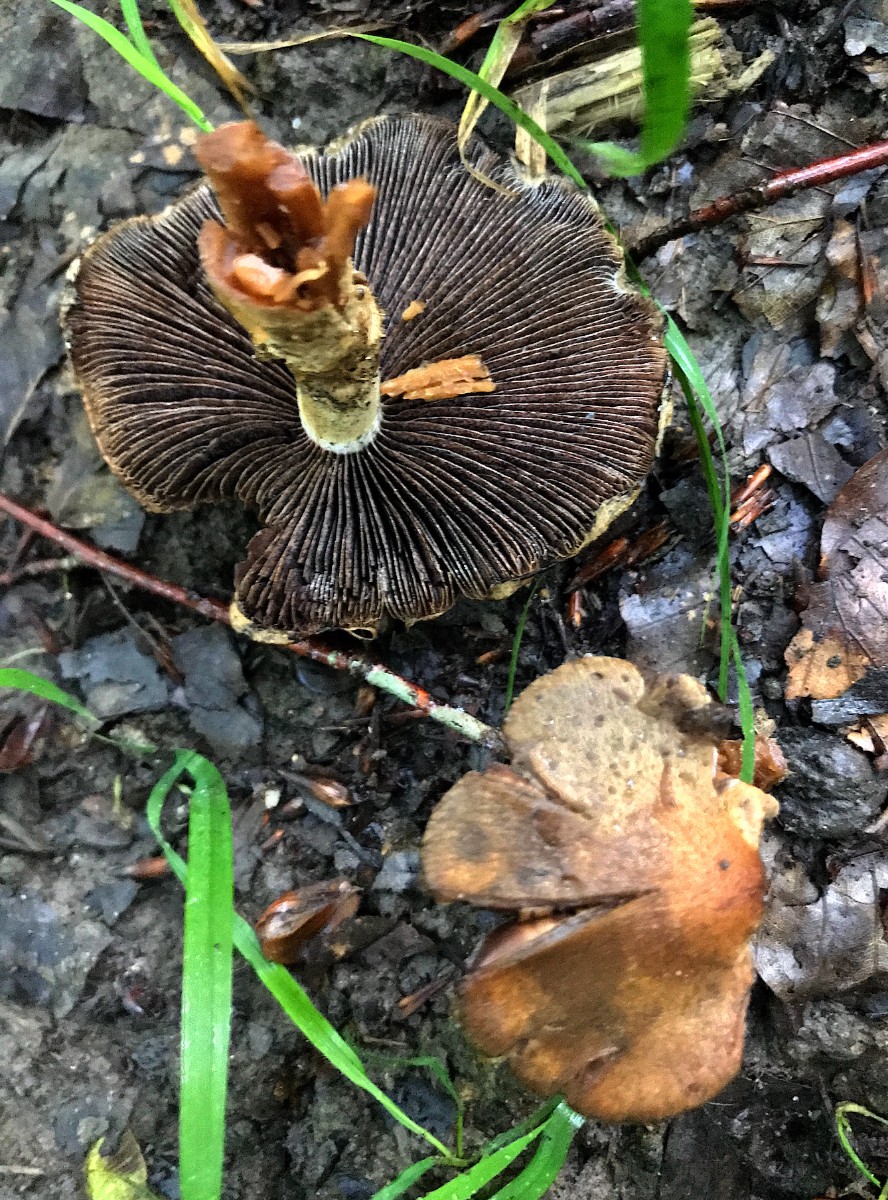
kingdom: Fungi
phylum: Basidiomycota
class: Agaricomycetes
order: Agaricales
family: Psathyrellaceae
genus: Lacrymaria
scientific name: Lacrymaria lacrymabunda
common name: grædende mørkhat
